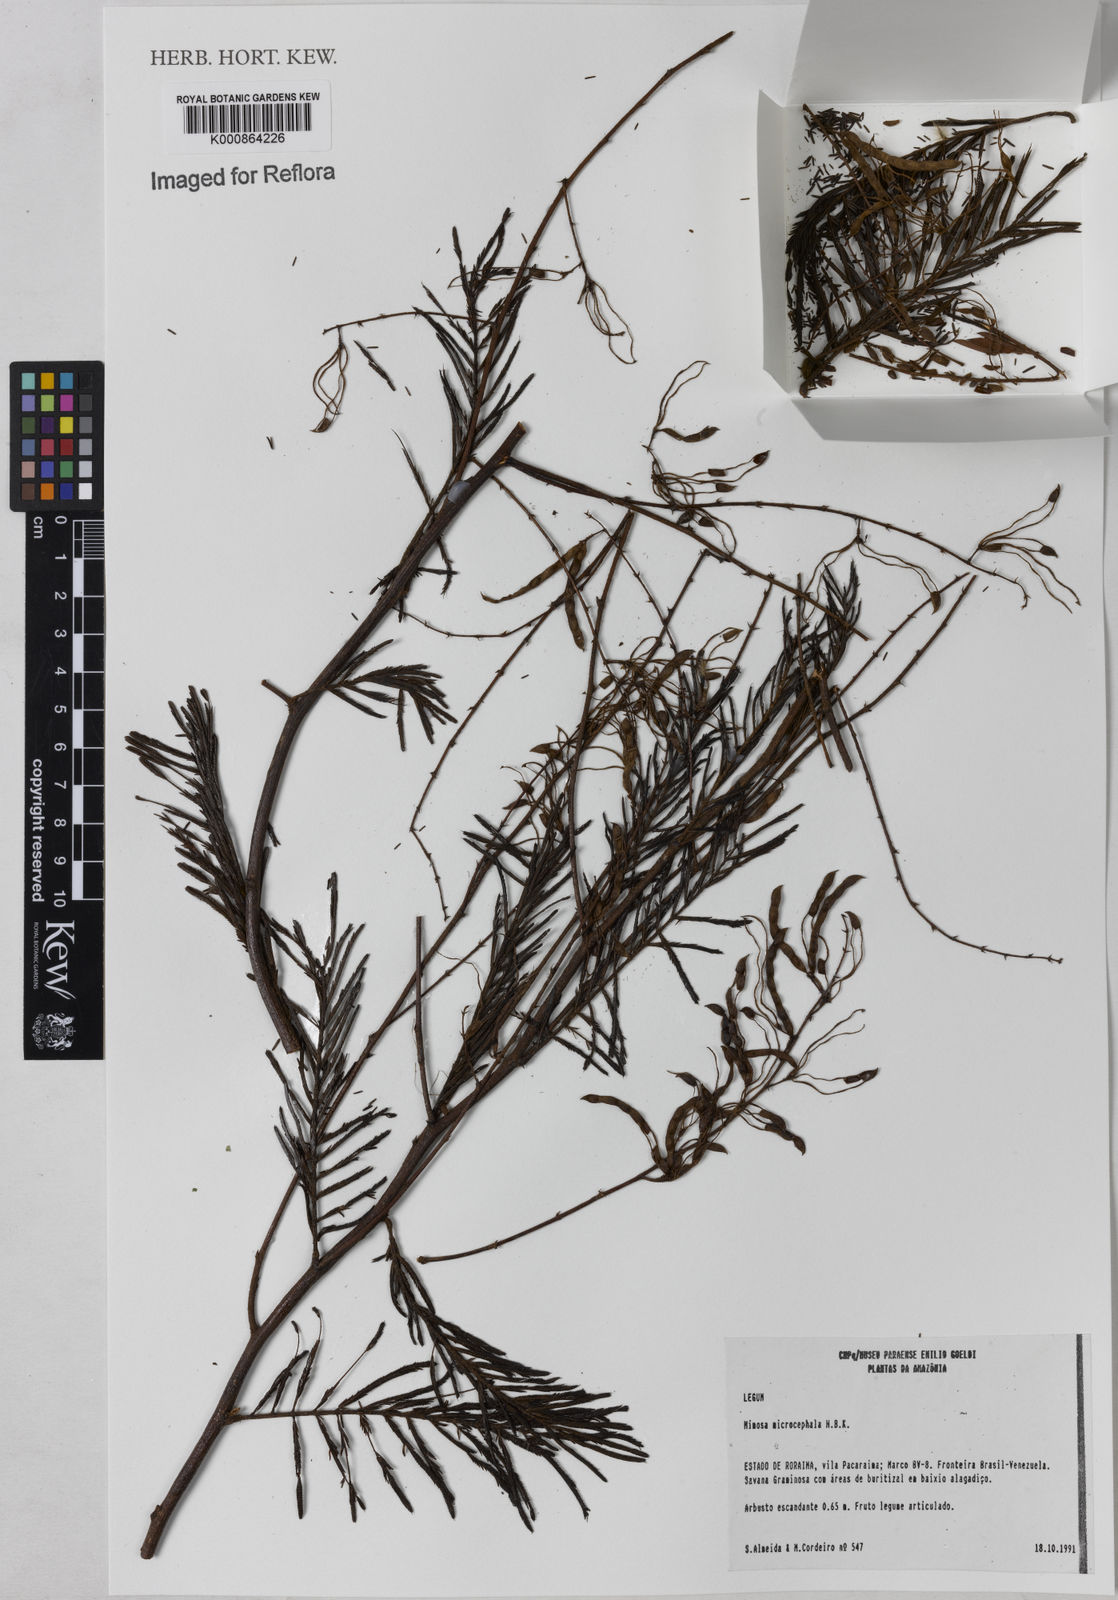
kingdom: Plantae
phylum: Tracheophyta
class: Magnoliopsida
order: Fabales
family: Fabaceae
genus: Mimosa
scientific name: Mimosa
